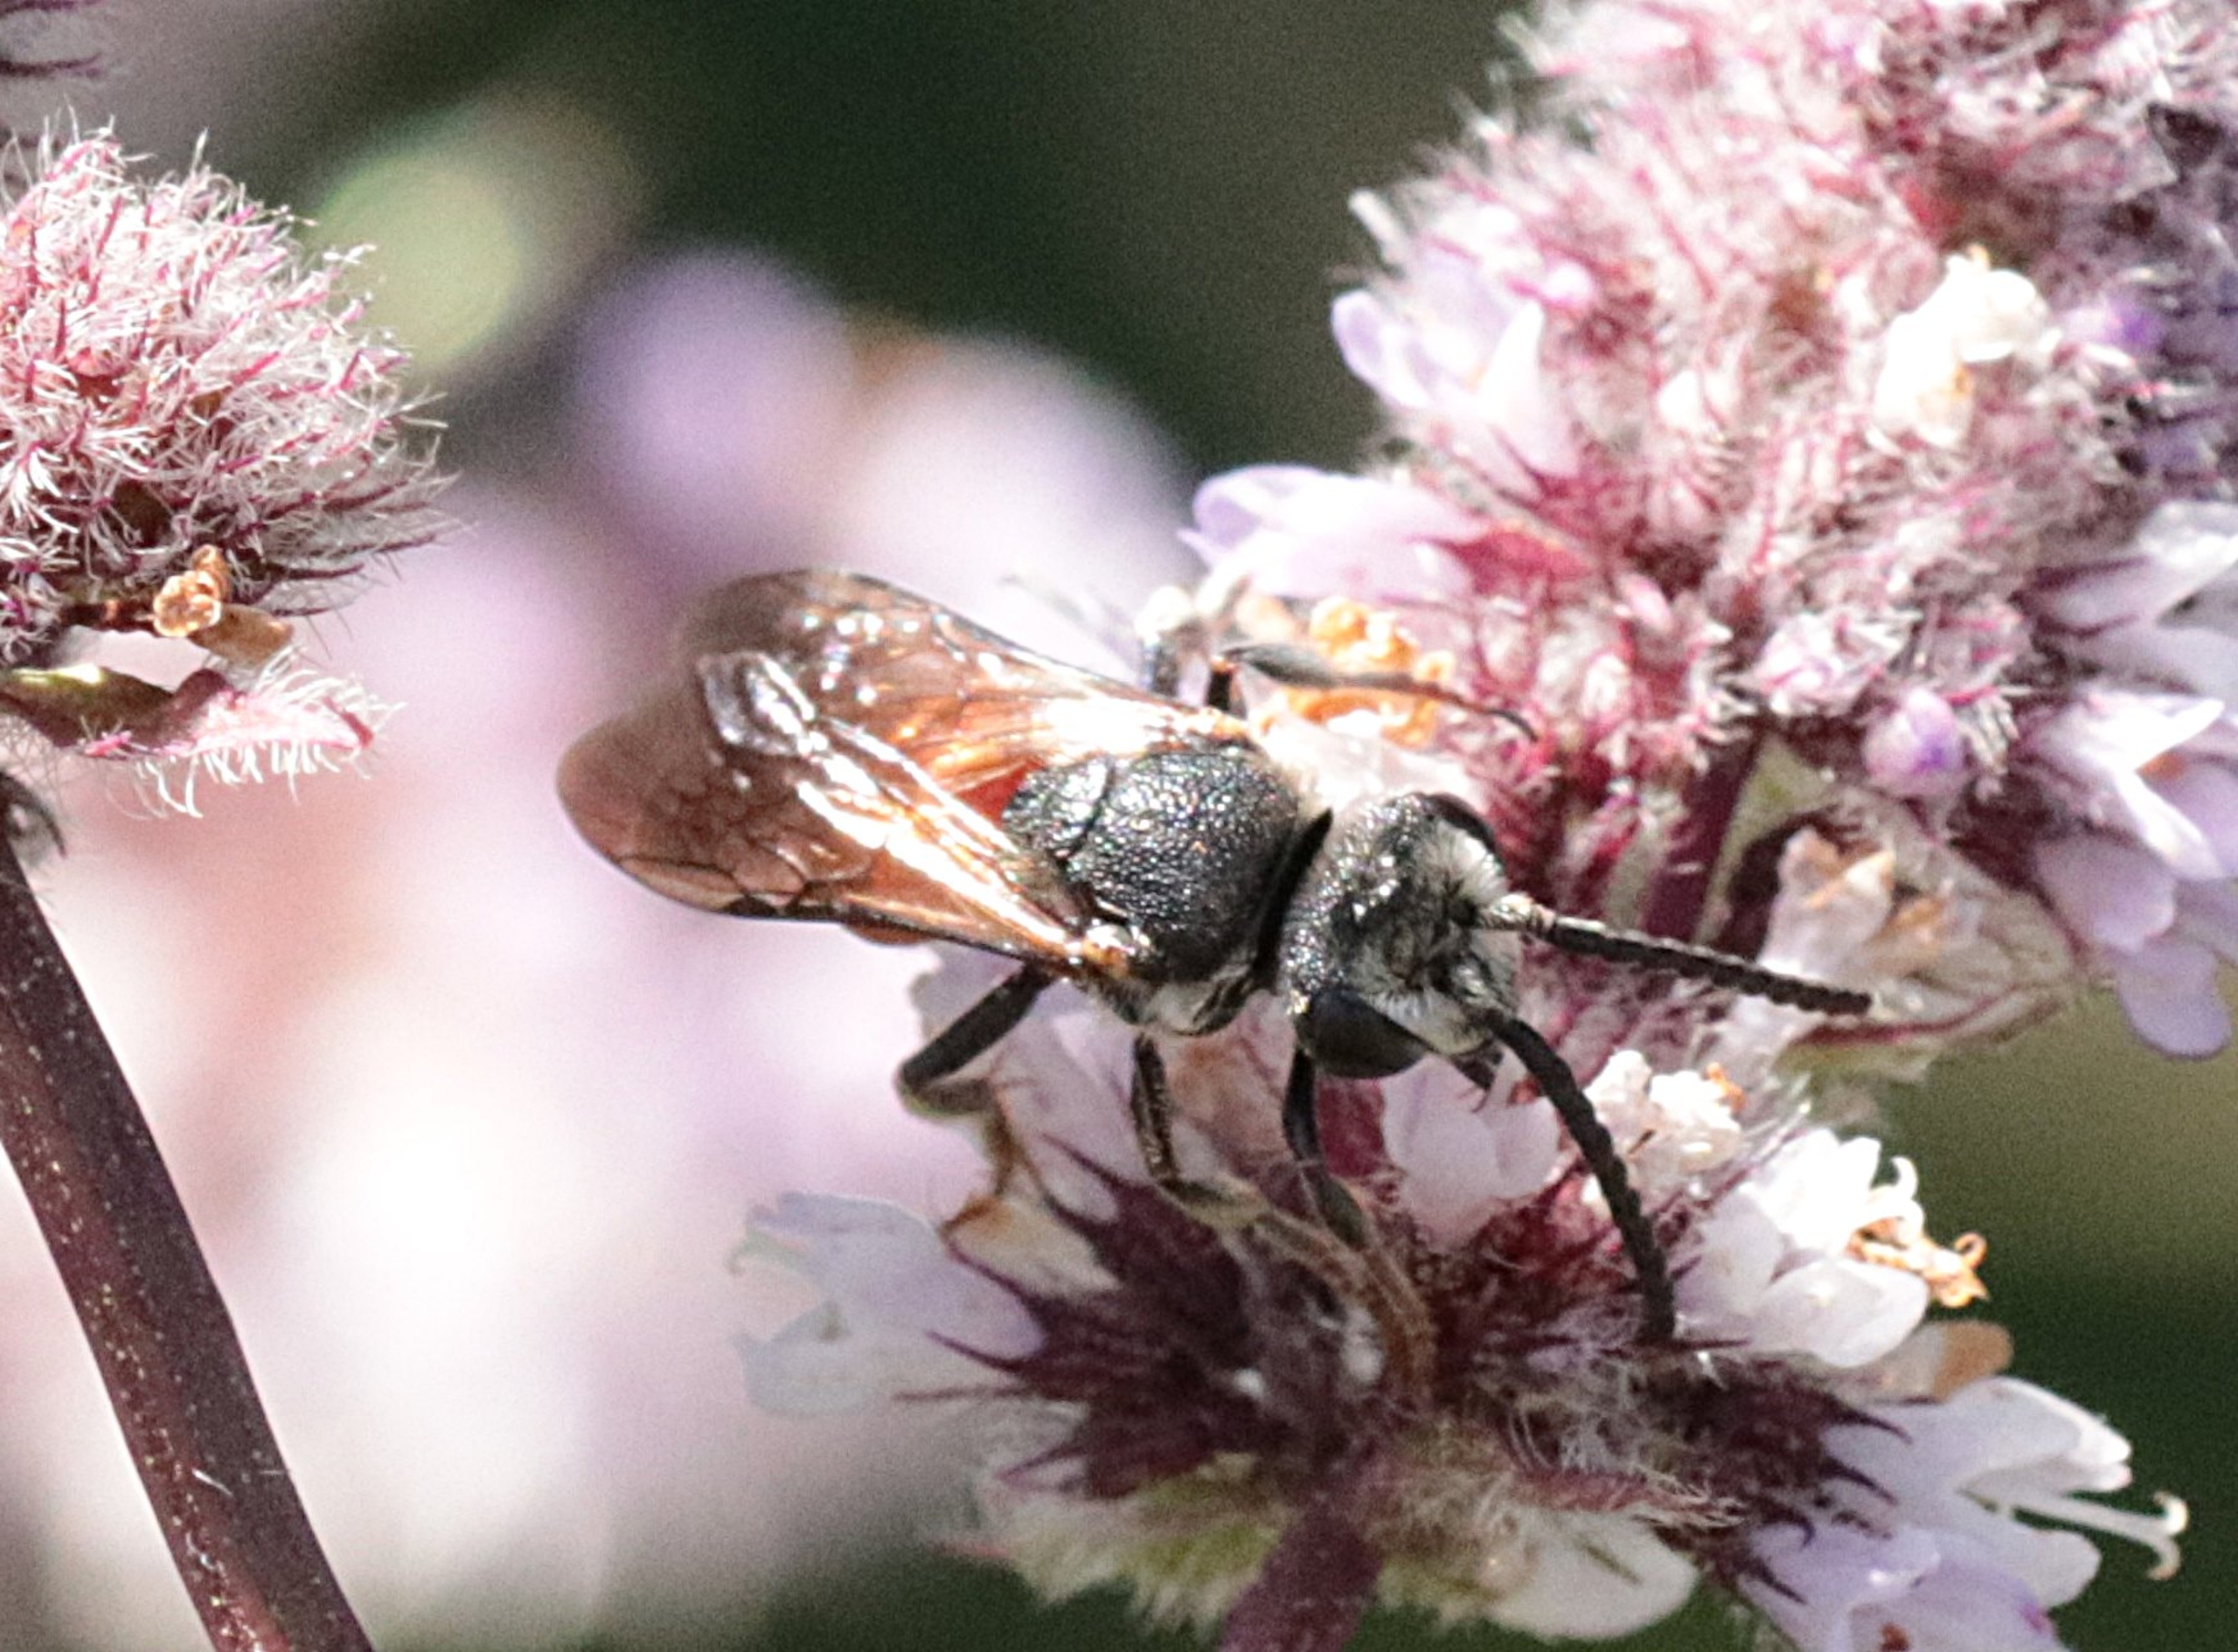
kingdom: Animalia
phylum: Arthropoda
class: Insecta
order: Hymenoptera
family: Halictidae
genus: Sphecodes
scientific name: Sphecodes albilabris
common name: Stor blodbi
